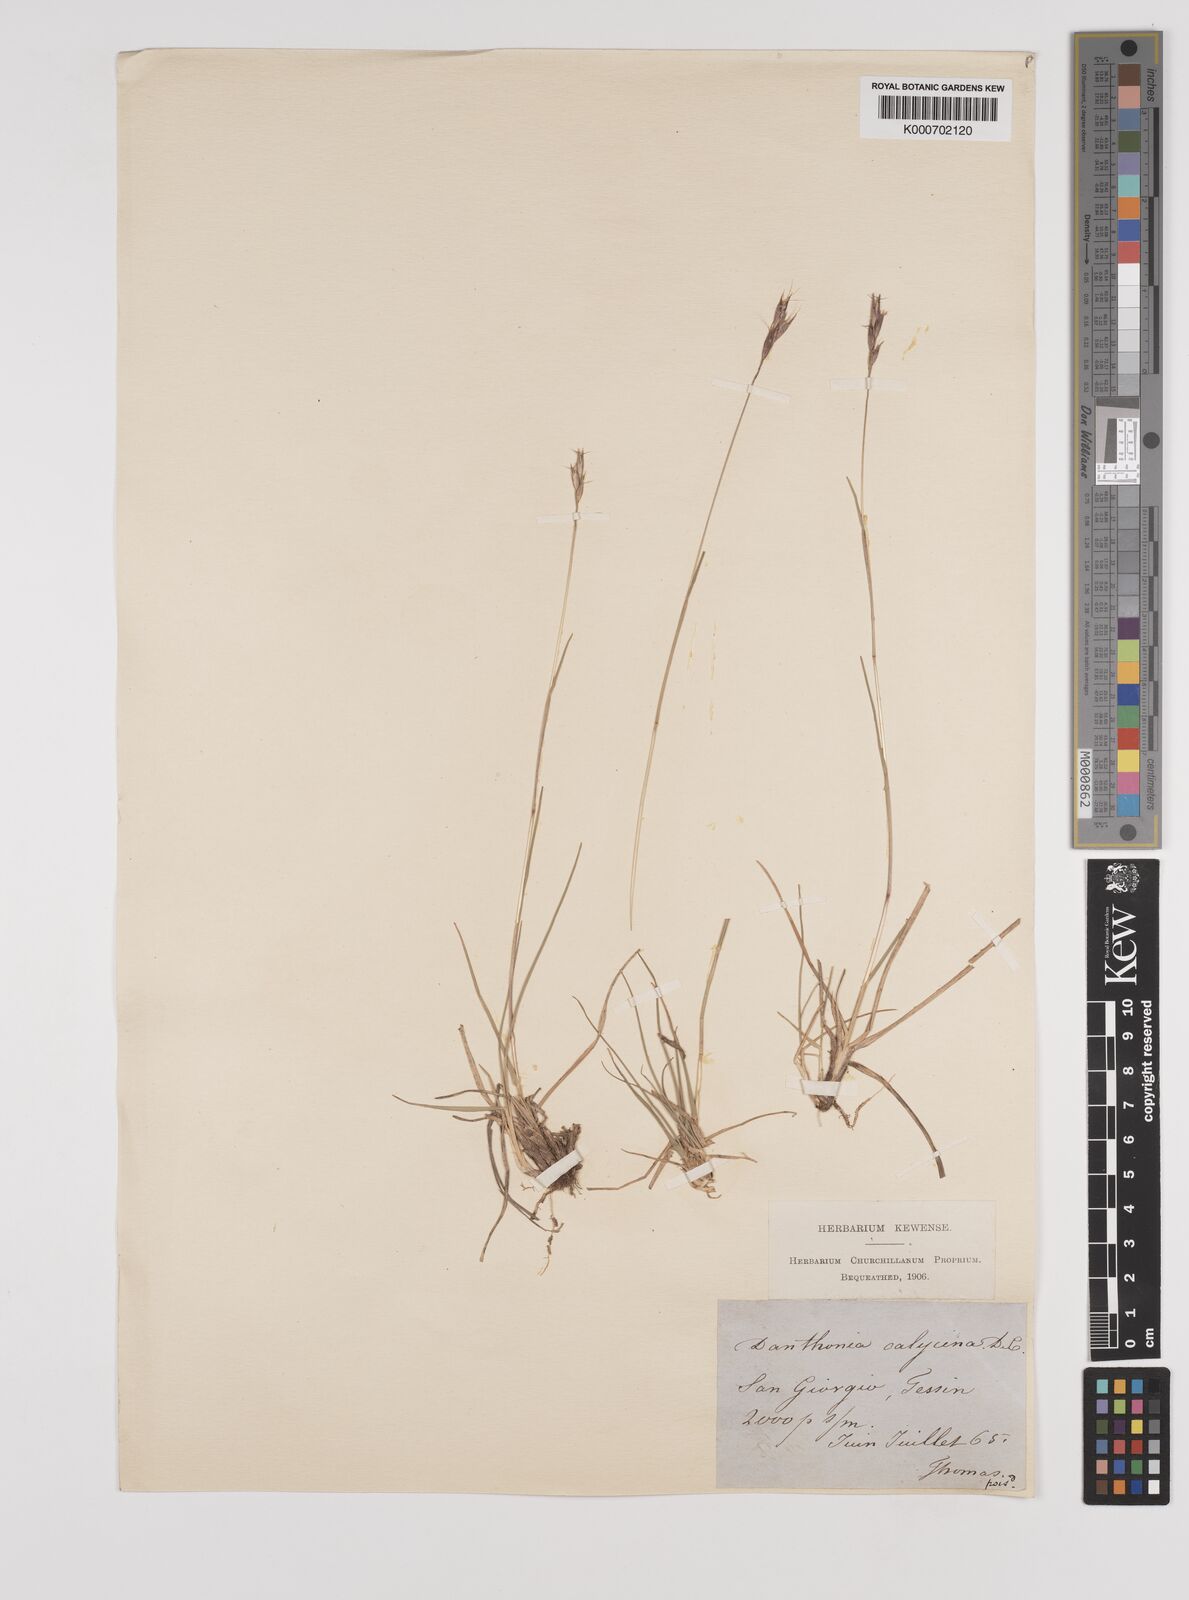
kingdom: Plantae
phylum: Tracheophyta
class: Liliopsida
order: Poales
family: Poaceae
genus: Danthonia
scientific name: Danthonia alpina
